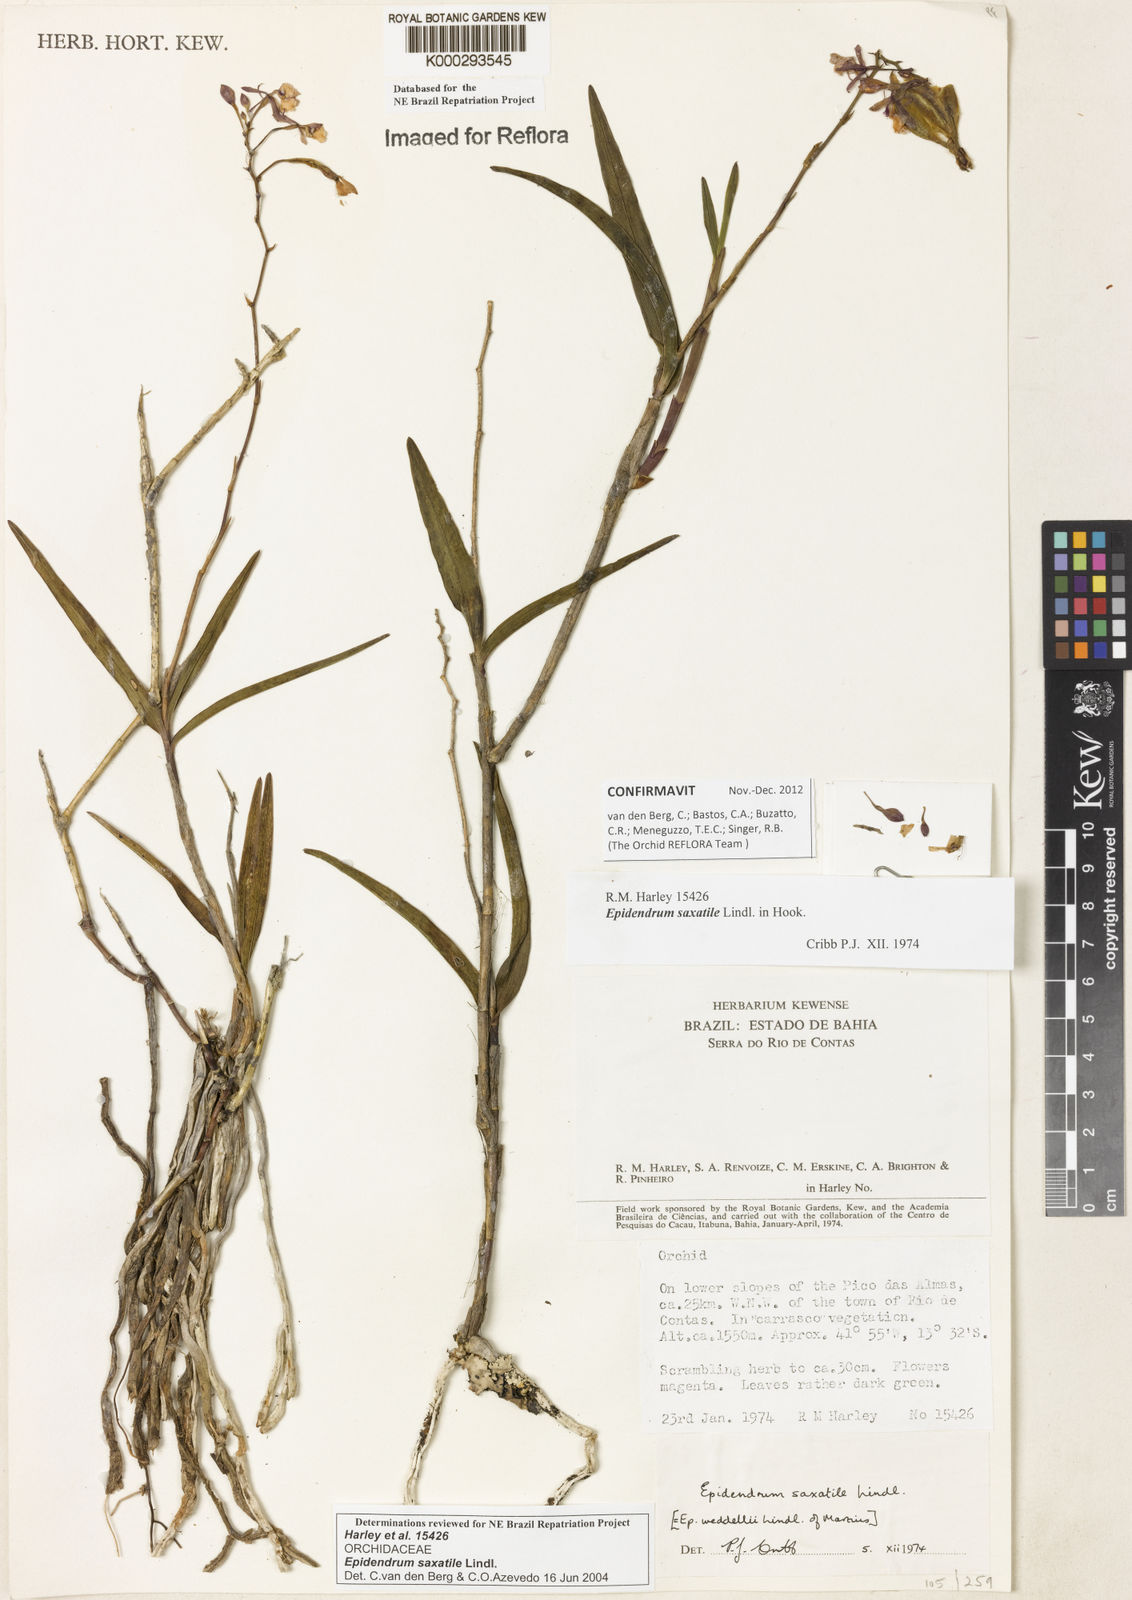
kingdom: Plantae
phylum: Tracheophyta
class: Liliopsida
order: Asparagales
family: Orchidaceae
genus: Epidendrum
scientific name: Epidendrum saxatile
